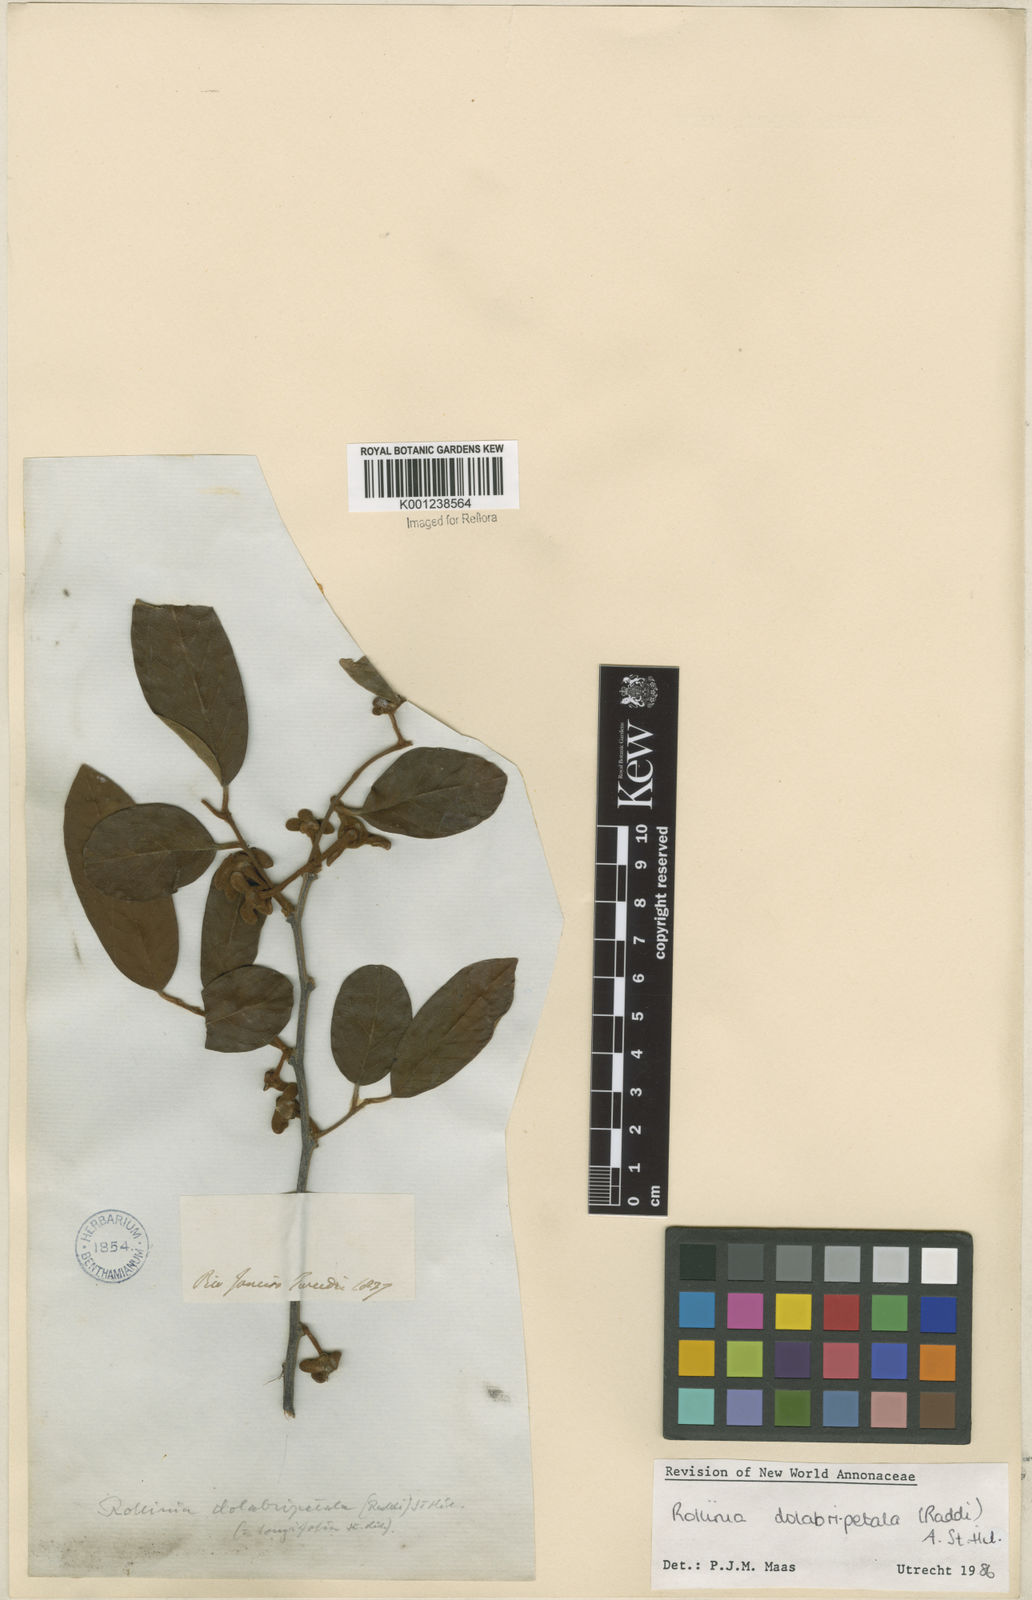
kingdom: Plantae
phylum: Tracheophyta
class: Magnoliopsida
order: Magnoliales
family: Annonaceae
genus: Annona
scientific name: Annona
